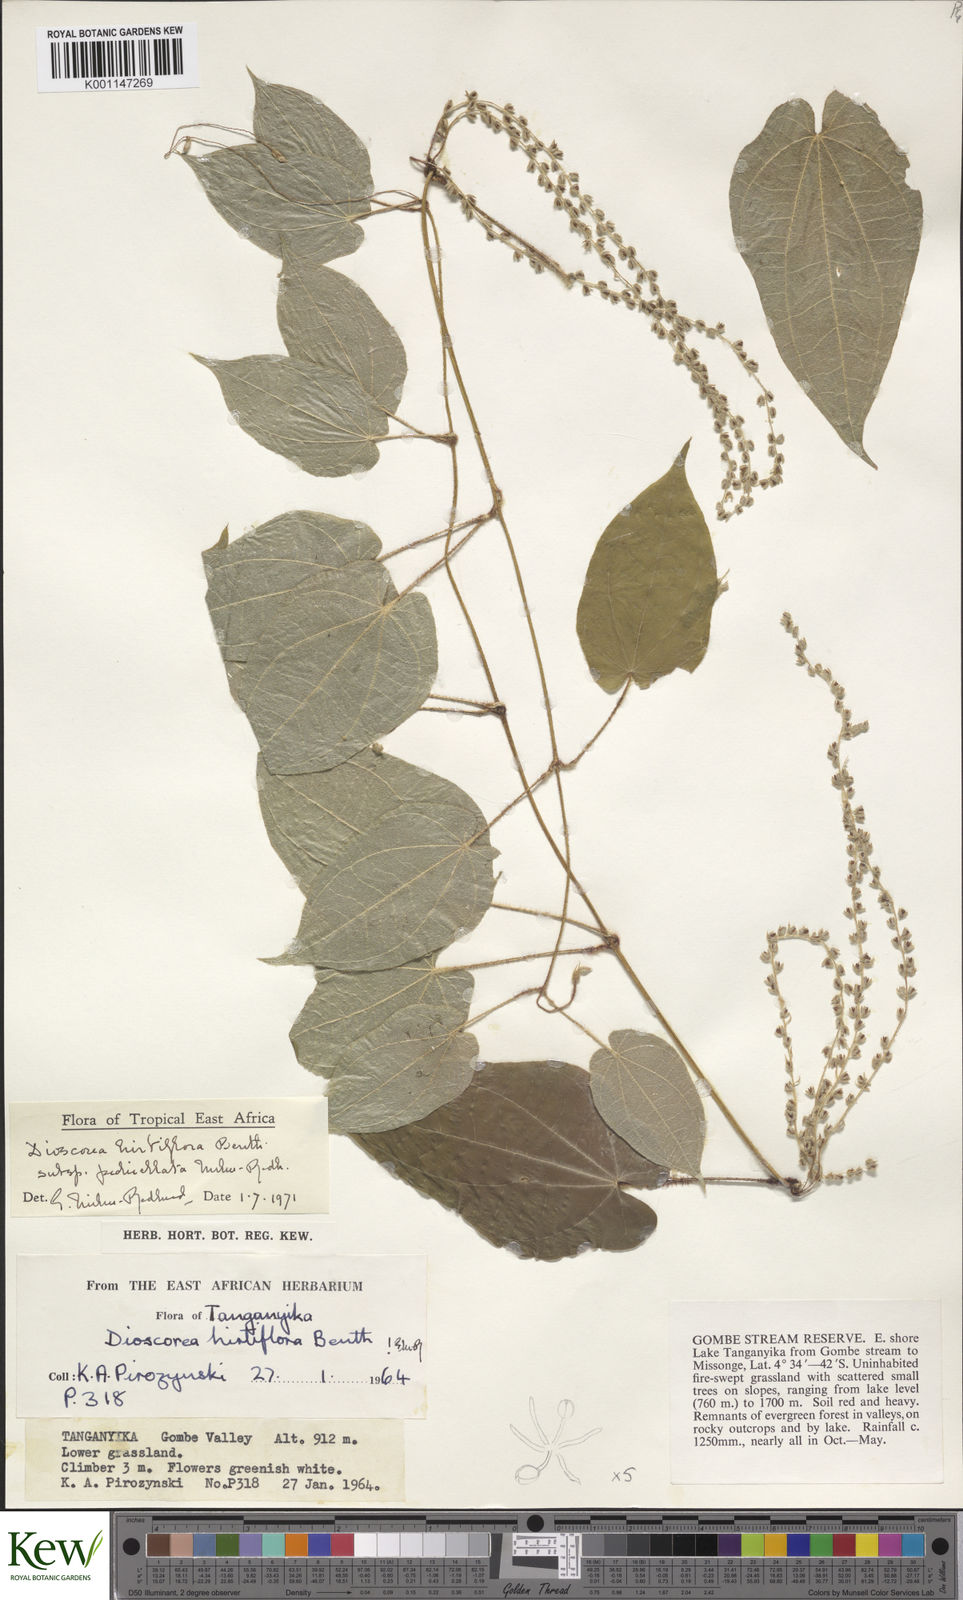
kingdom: Plantae
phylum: Tracheophyta
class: Liliopsida
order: Dioscoreales
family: Dioscoreaceae
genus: Dioscorea
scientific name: Dioscorea hirtiflora
